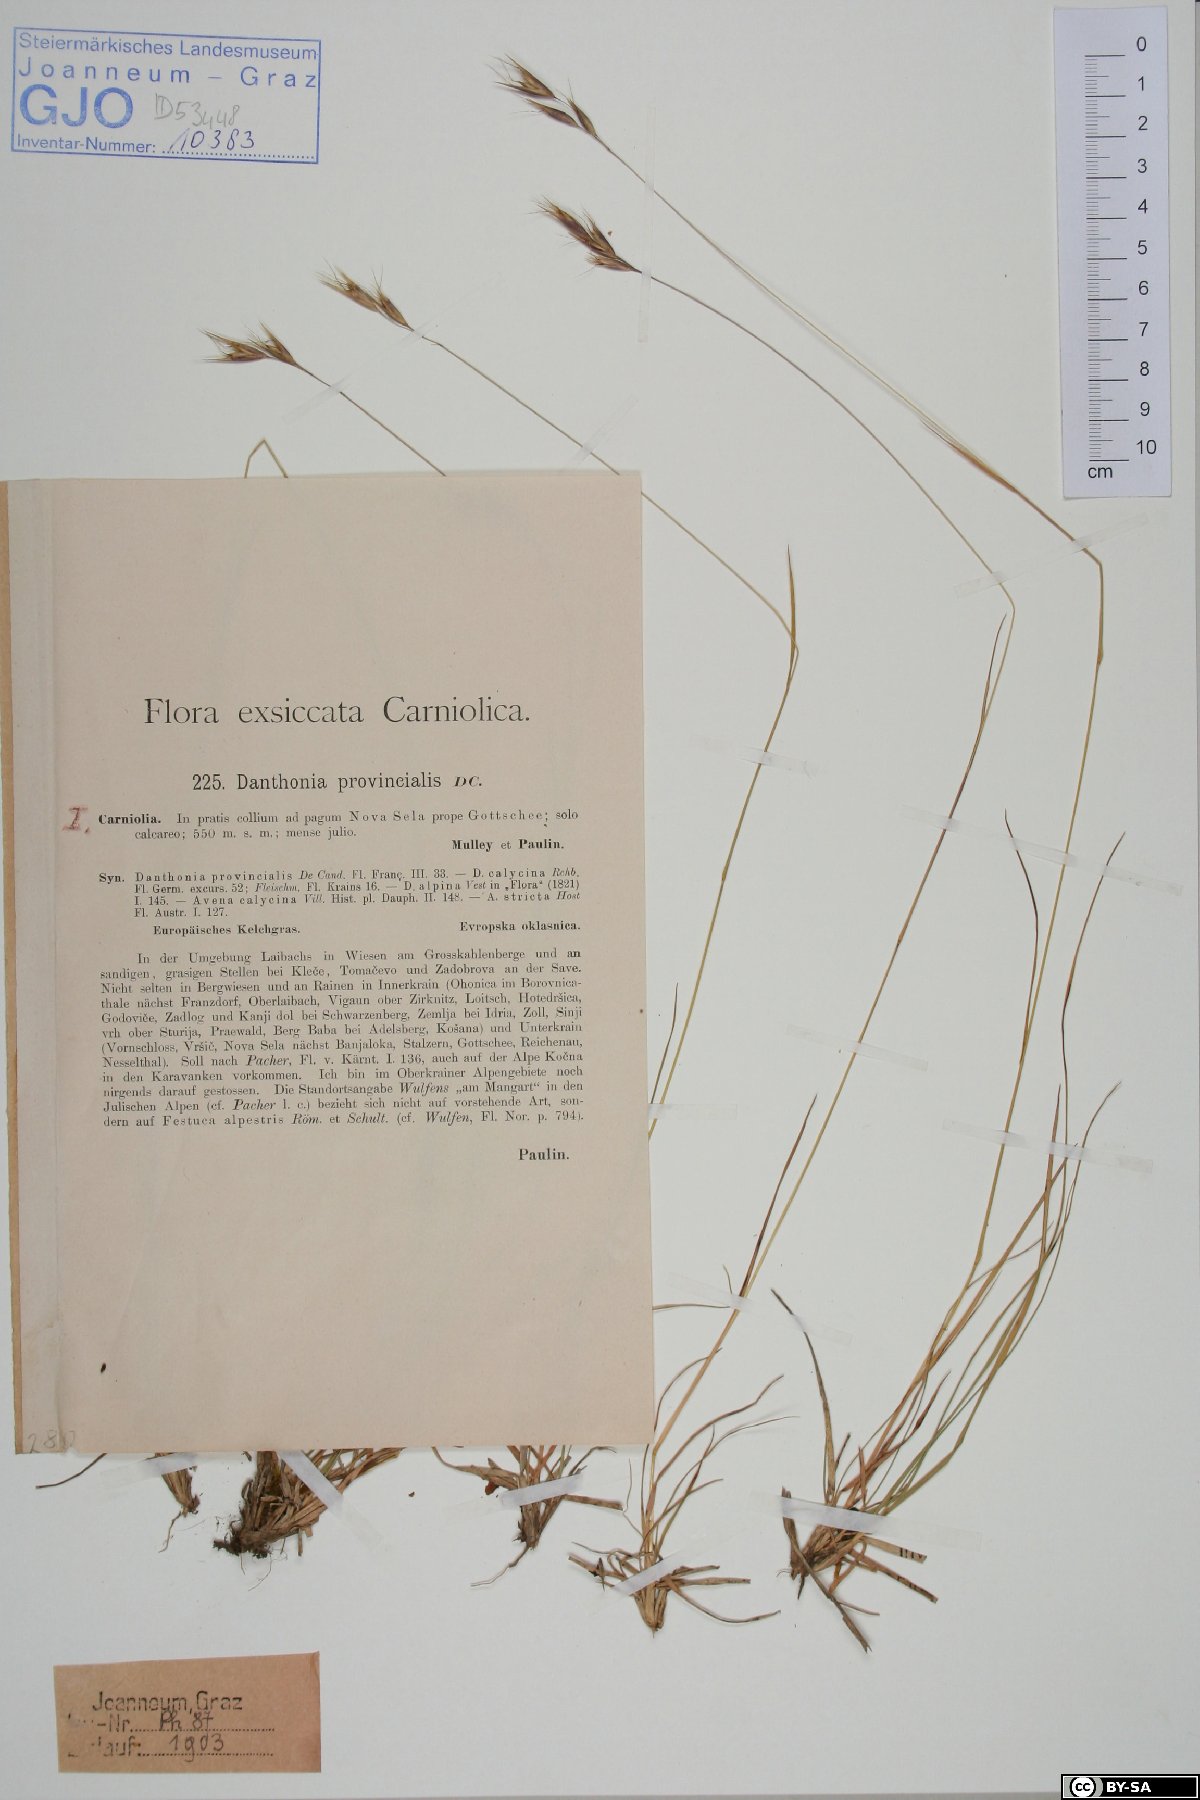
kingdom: Plantae
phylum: Tracheophyta
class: Liliopsida
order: Poales
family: Poaceae
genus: Danthonia
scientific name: Danthonia alpina
